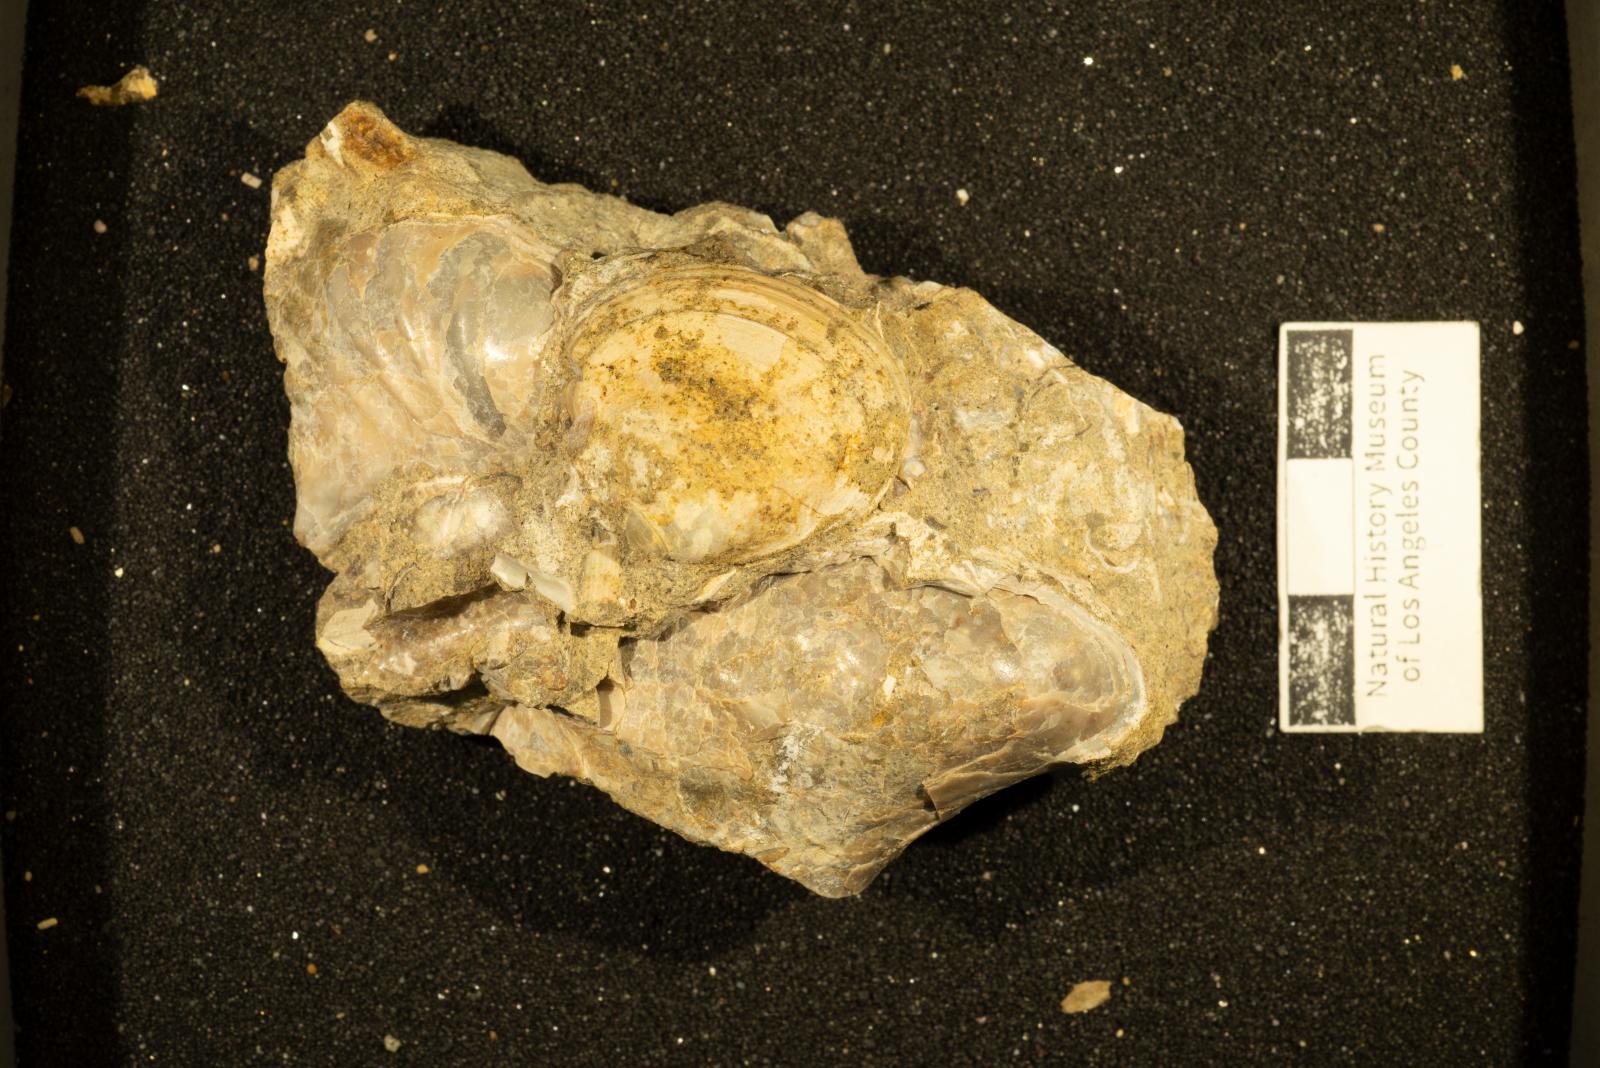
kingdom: Animalia
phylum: Mollusca
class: Bivalvia
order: Venerida
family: Veneridae
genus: Paraesa
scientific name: Paraesa Meretrix lens
